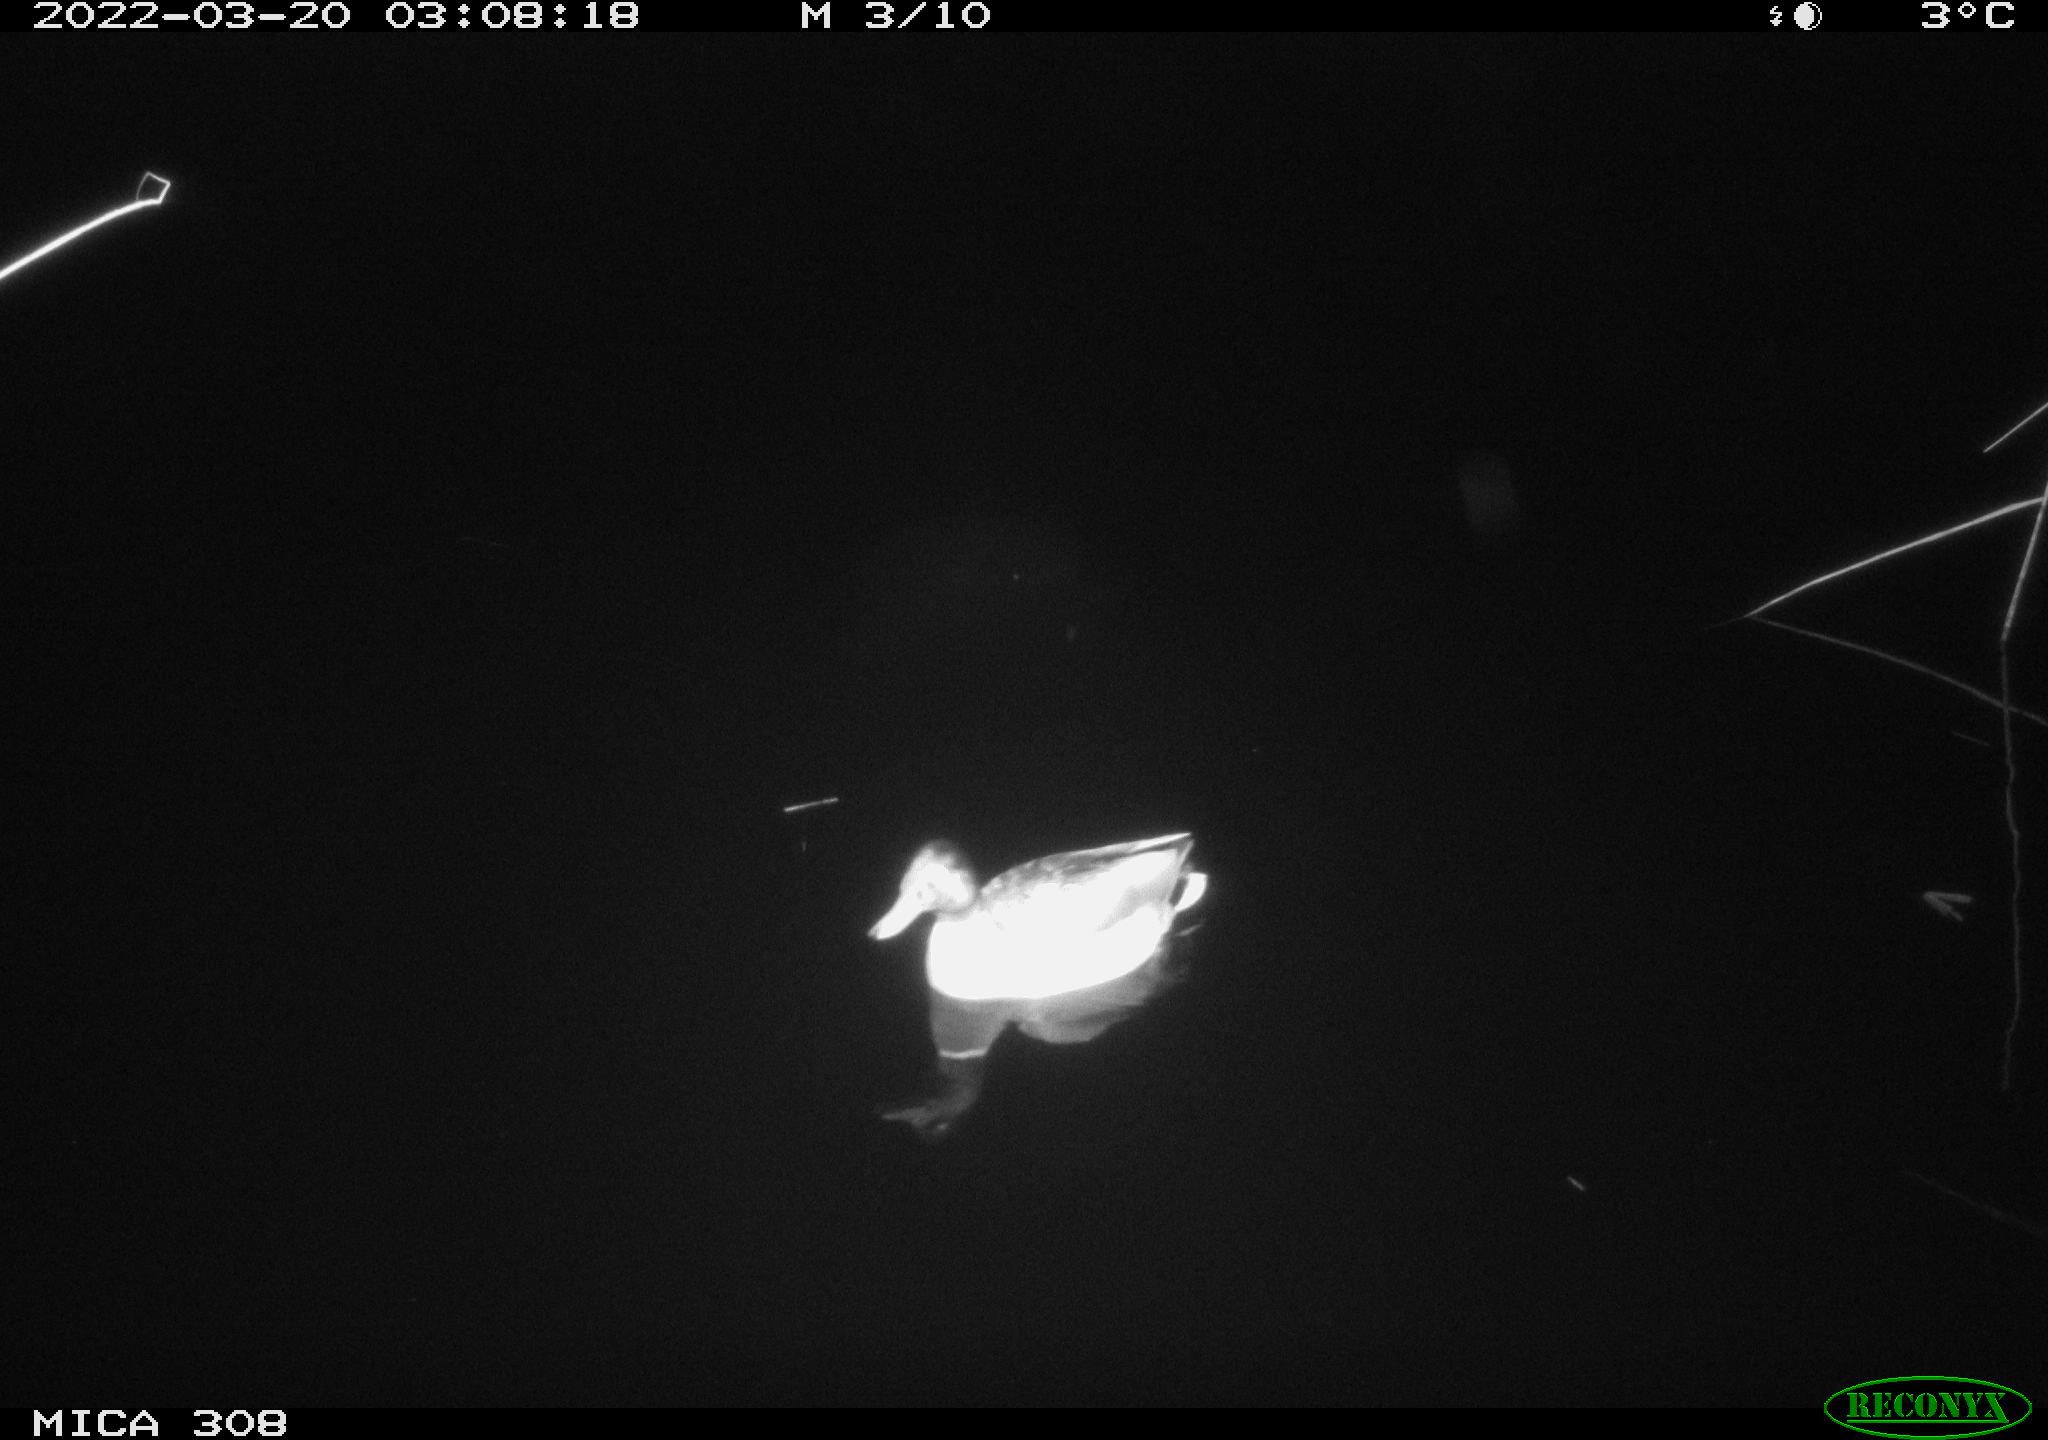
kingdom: Animalia
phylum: Chordata
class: Aves
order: Anseriformes
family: Anatidae
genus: Anas
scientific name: Anas platyrhynchos
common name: Mallard
